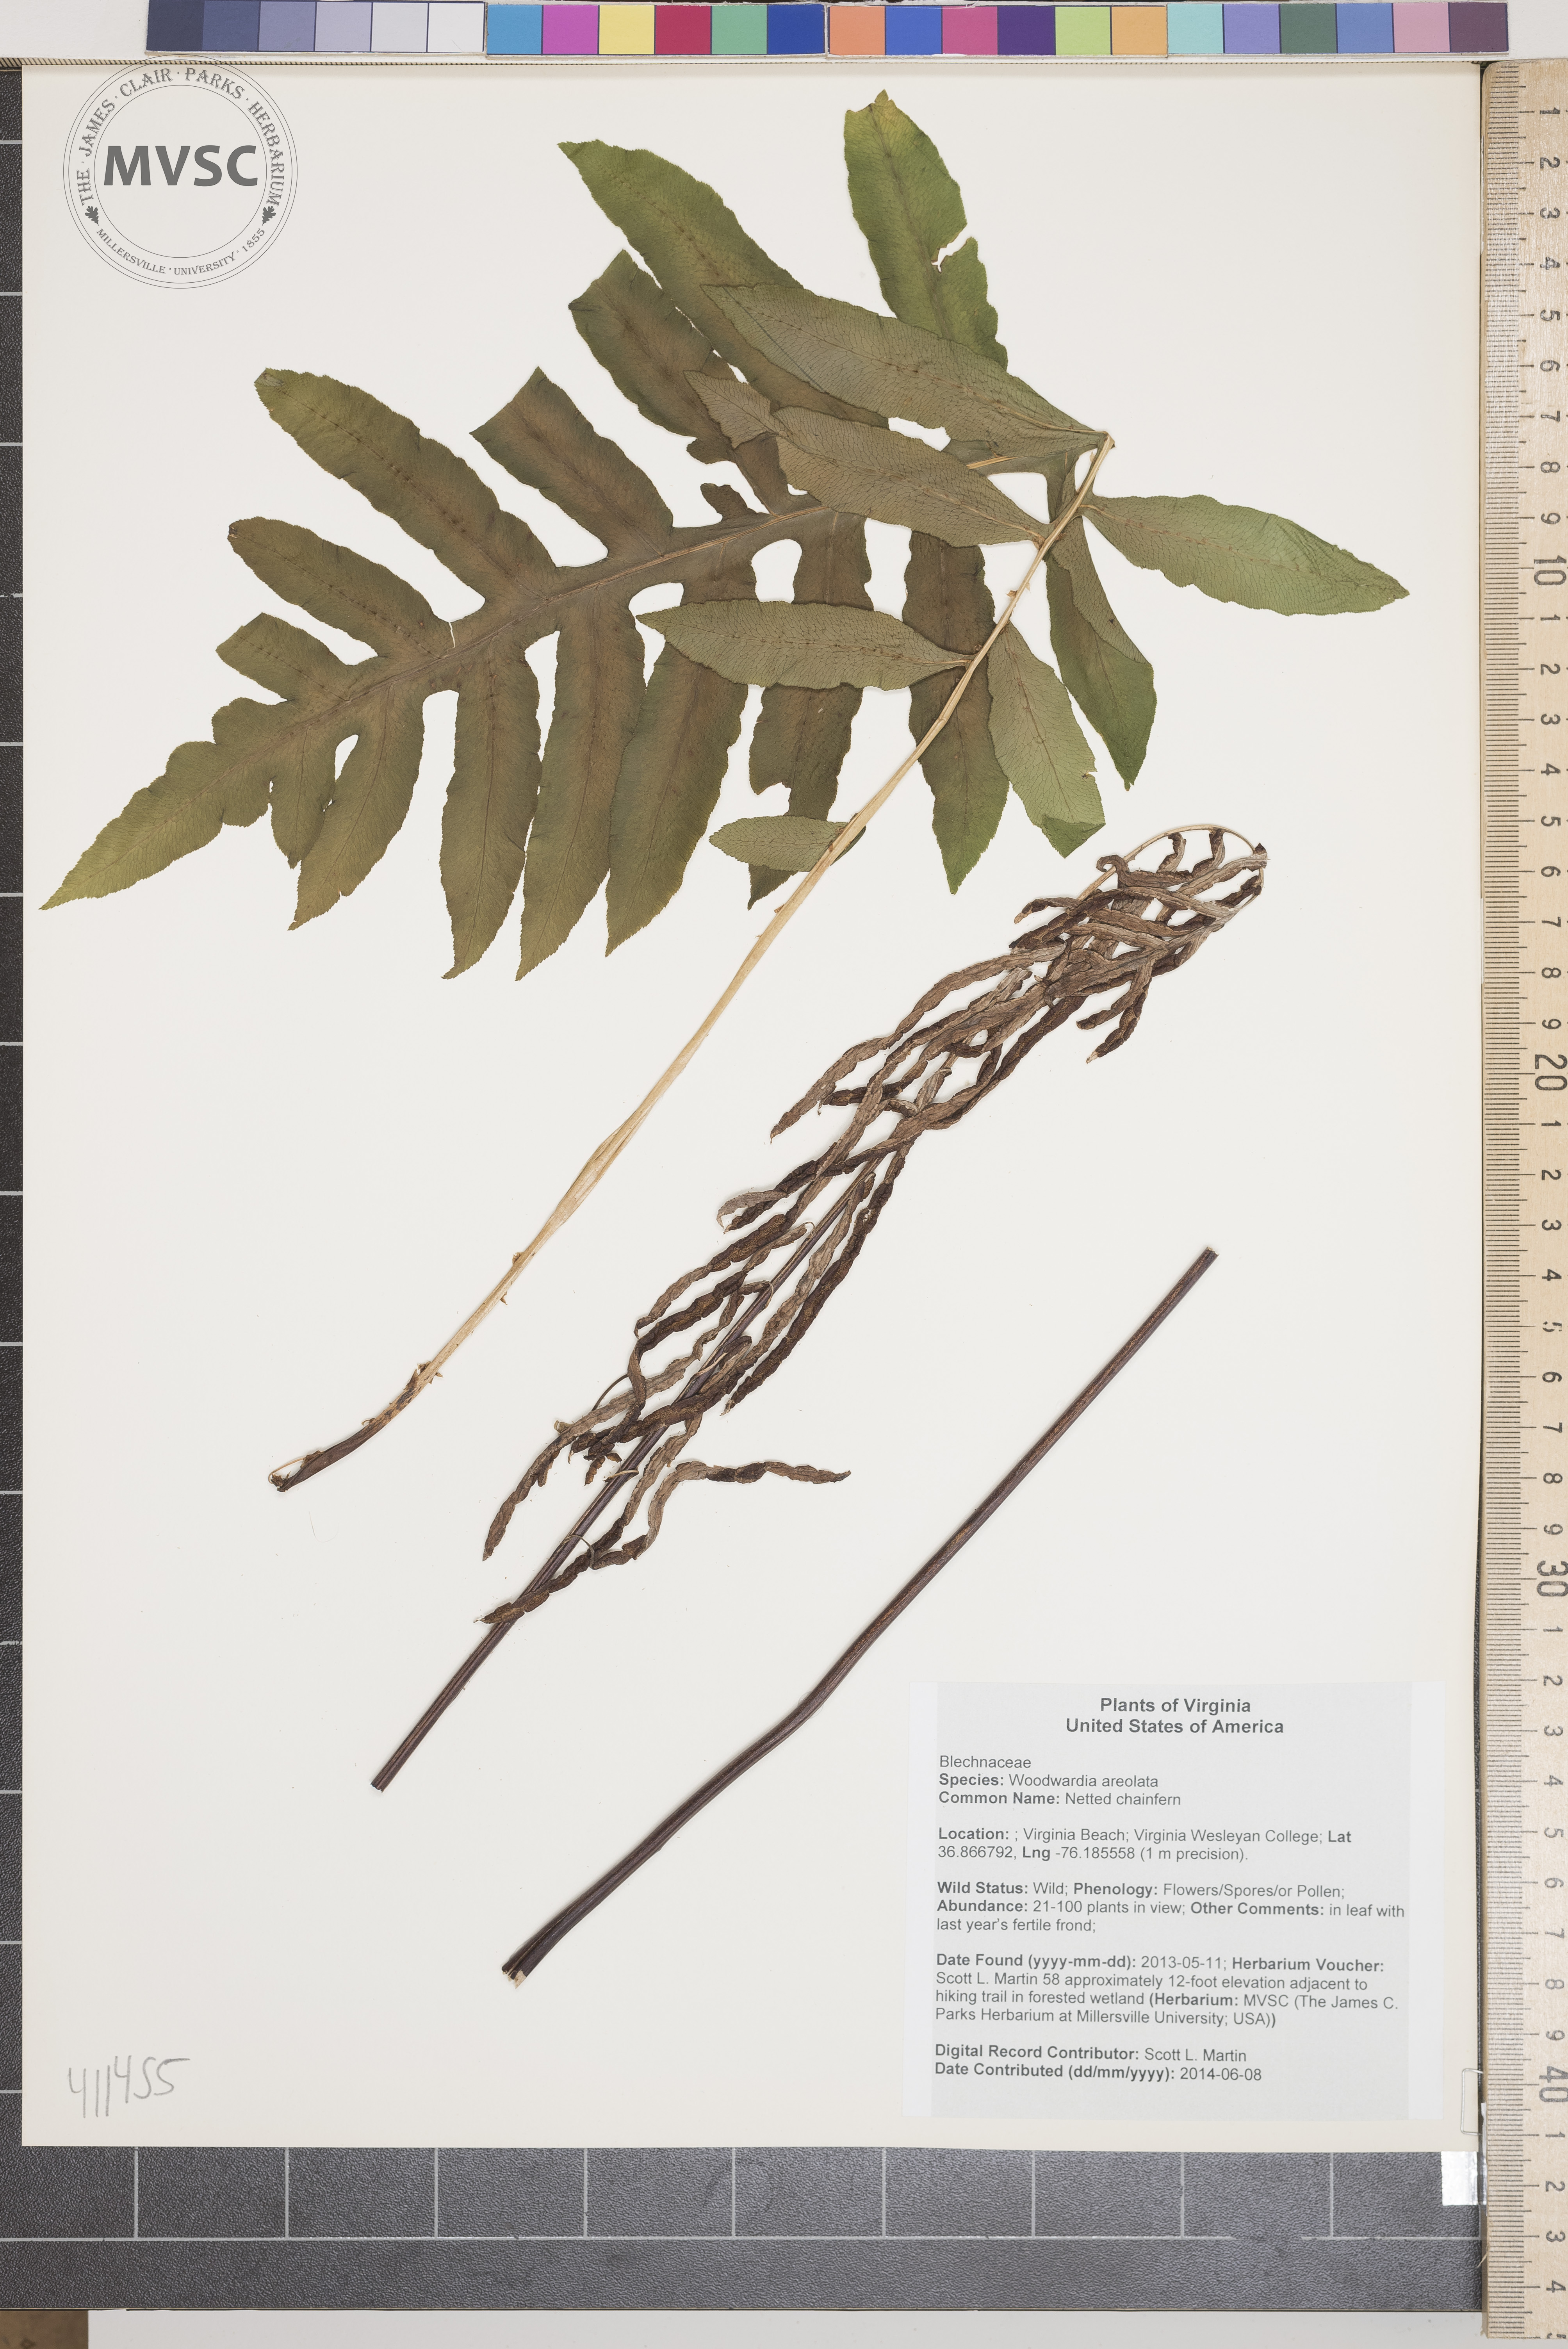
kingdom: Plantae
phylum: Tracheophyta
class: Polypodiopsida
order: Polypodiales
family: Blechnaceae
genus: Lorinseria
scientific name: Lorinseria areolata
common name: Netted chainfern
